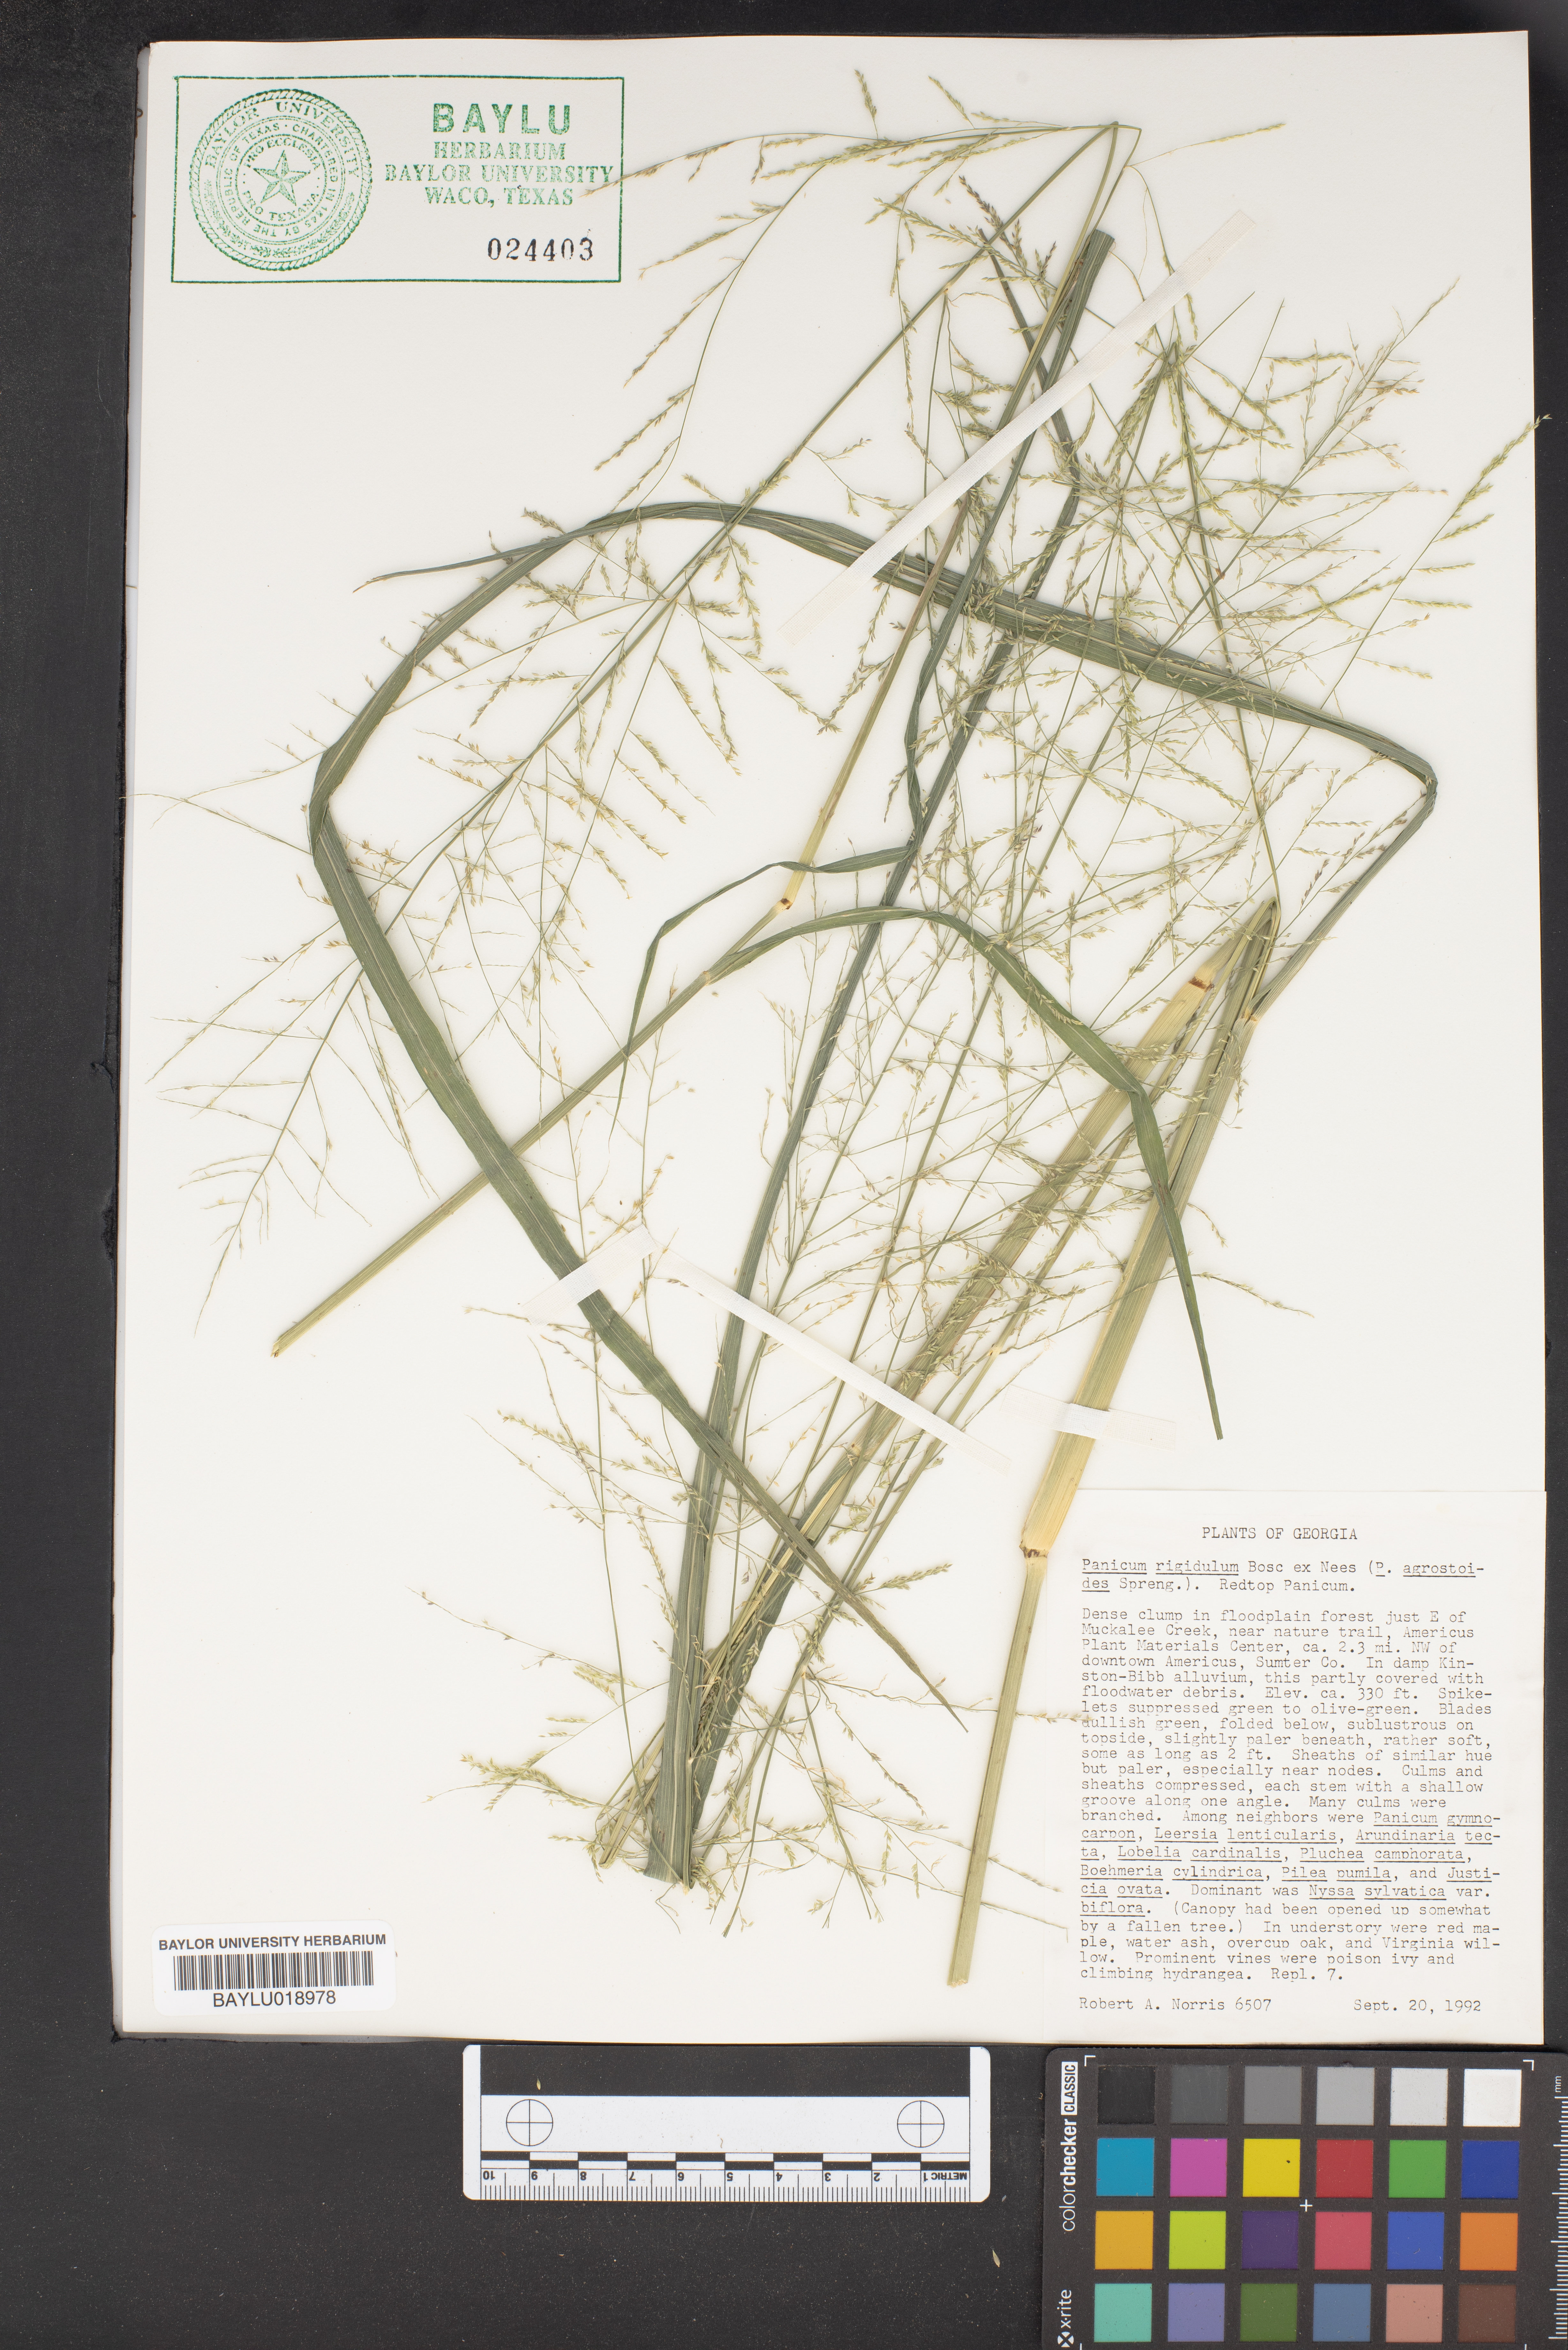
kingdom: Plantae
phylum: Tracheophyta
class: Liliopsida
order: Poales
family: Poaceae
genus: Coleataenia
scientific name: Coleataenia rigidula
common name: Redtop panicgrass
